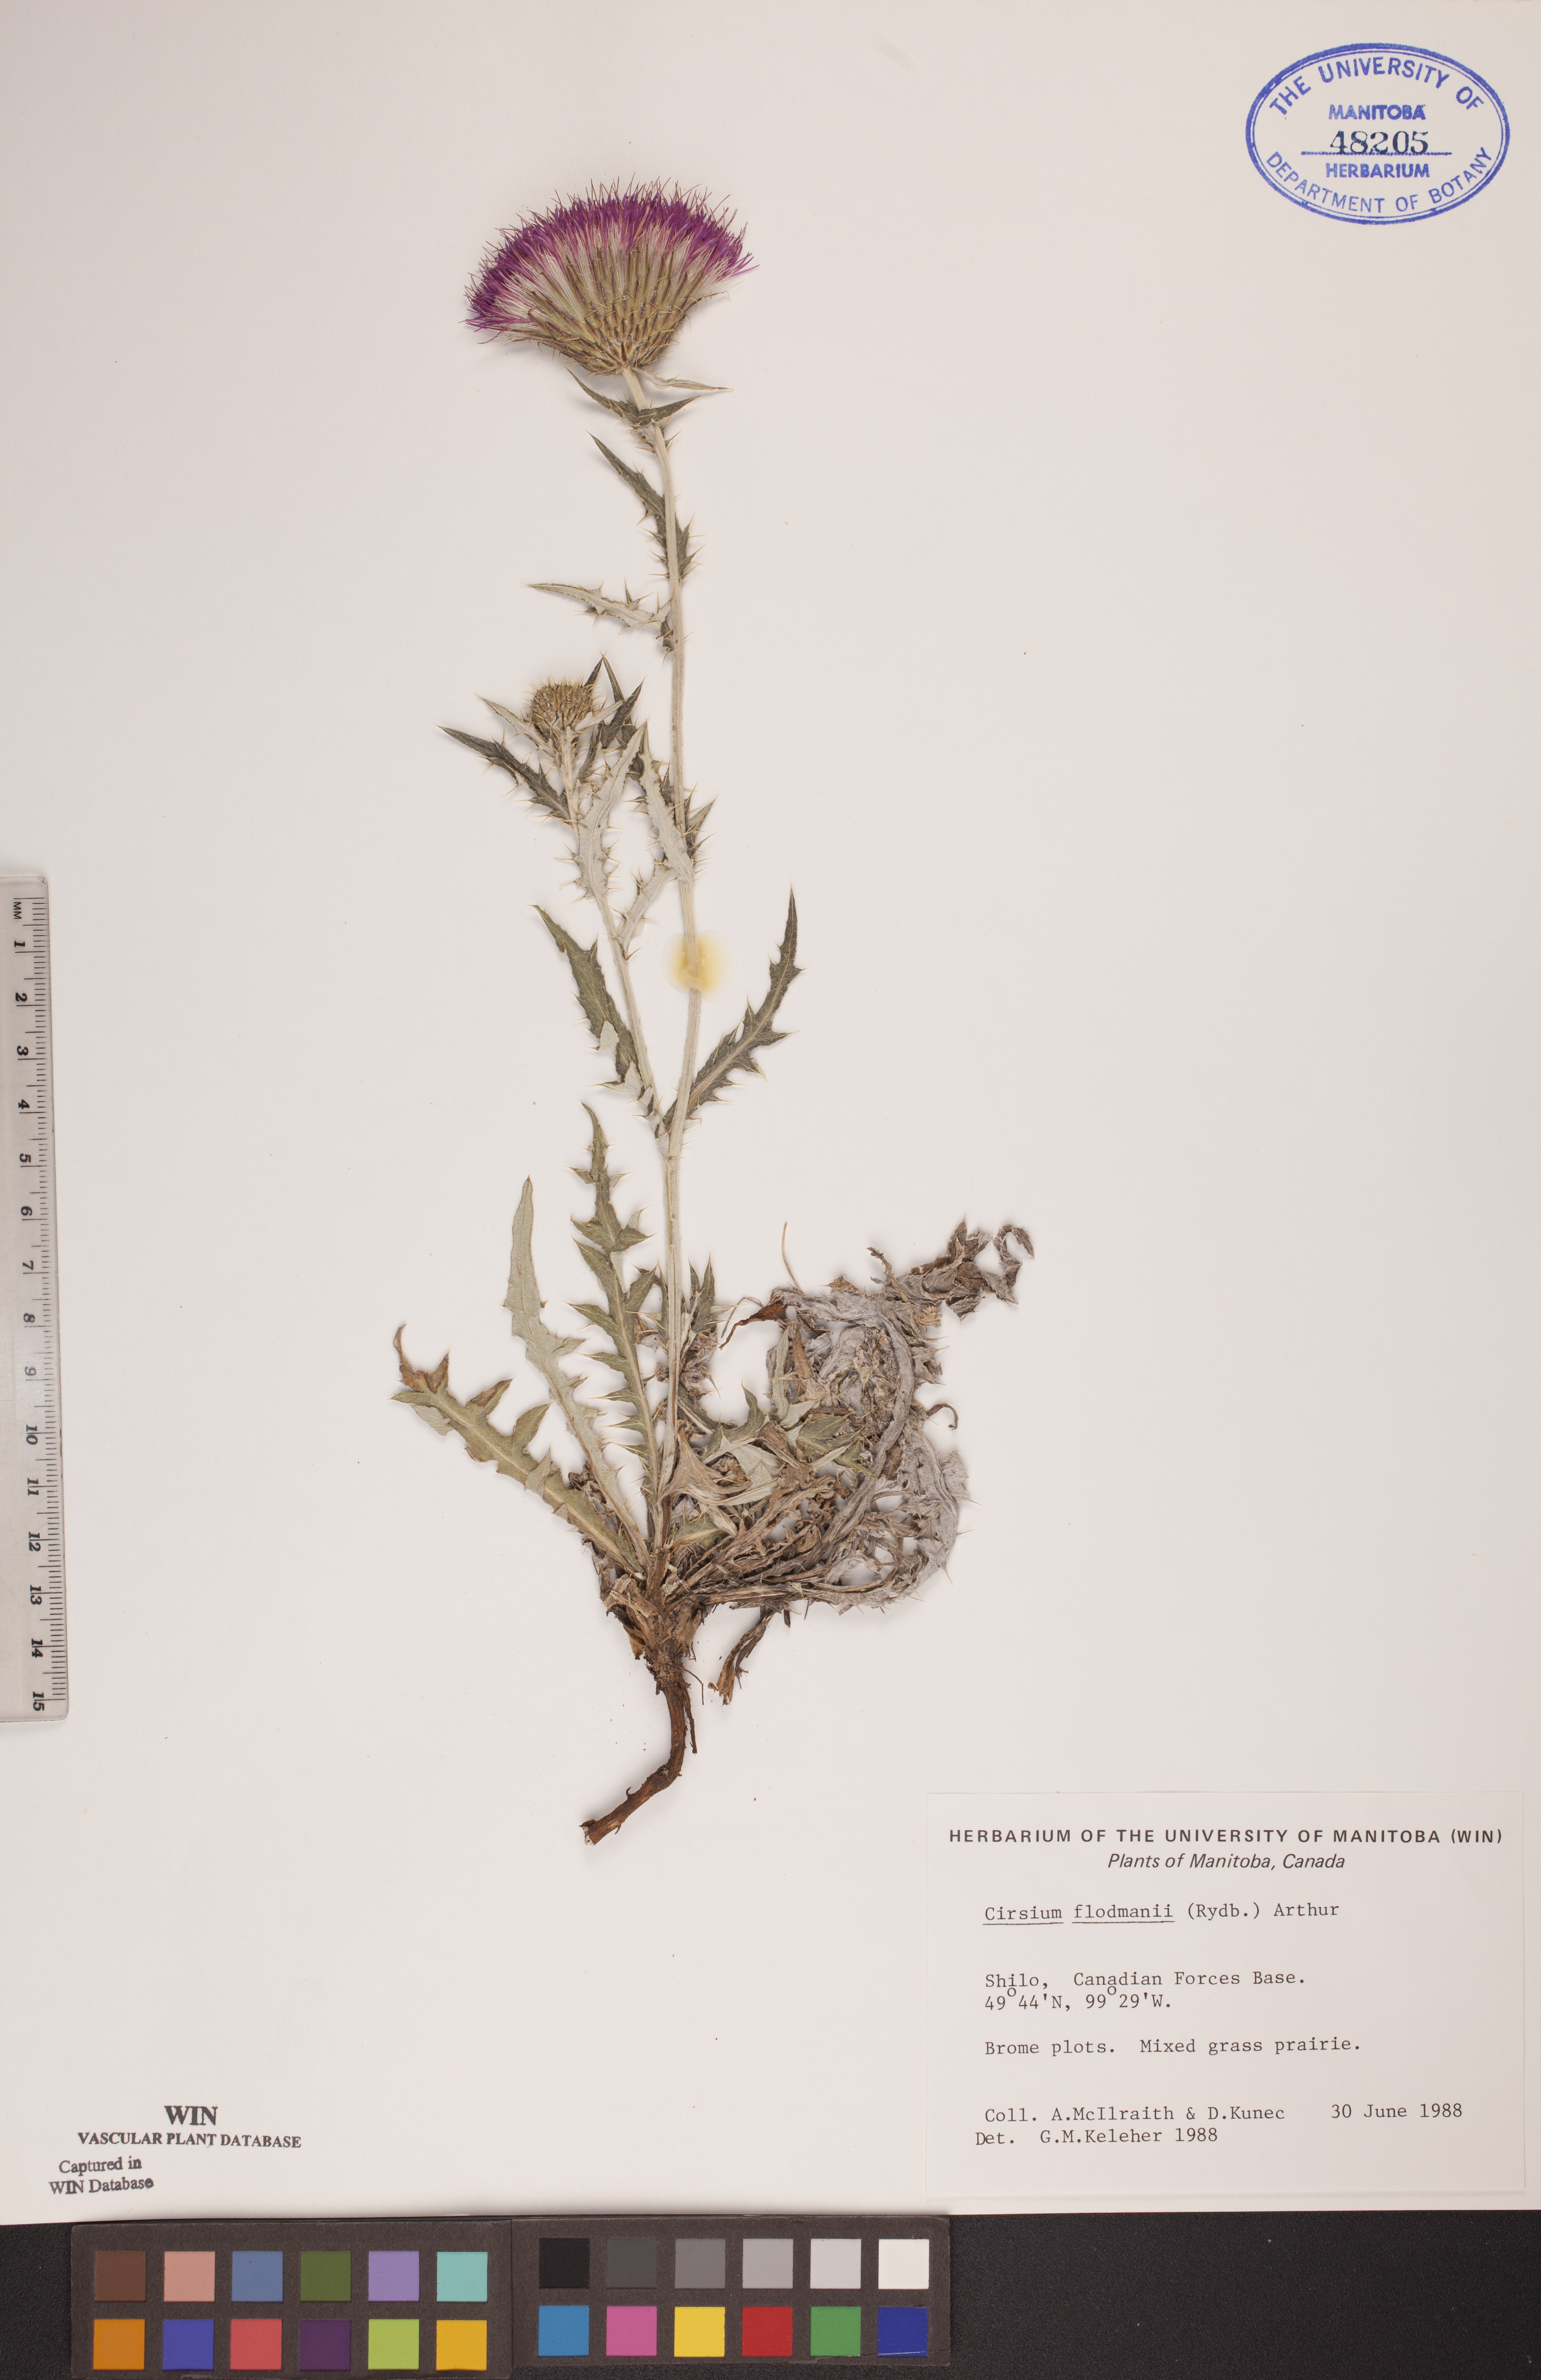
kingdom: Plantae
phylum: Tracheophyta
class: Magnoliopsida
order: Asterales
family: Asteraceae
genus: Cirsium
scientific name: Cirsium flodmanii
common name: Flodman's thistle
